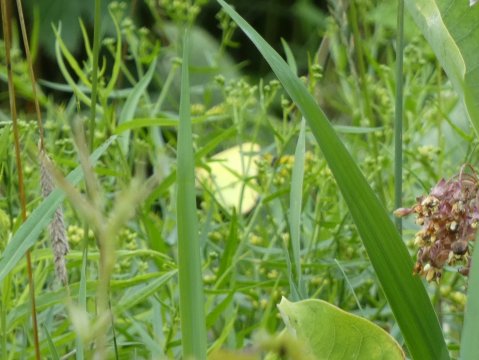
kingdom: Animalia
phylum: Arthropoda
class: Insecta
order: Lepidoptera
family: Pieridae
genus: Colias
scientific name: Colias philodice
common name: Clouded Sulphur
